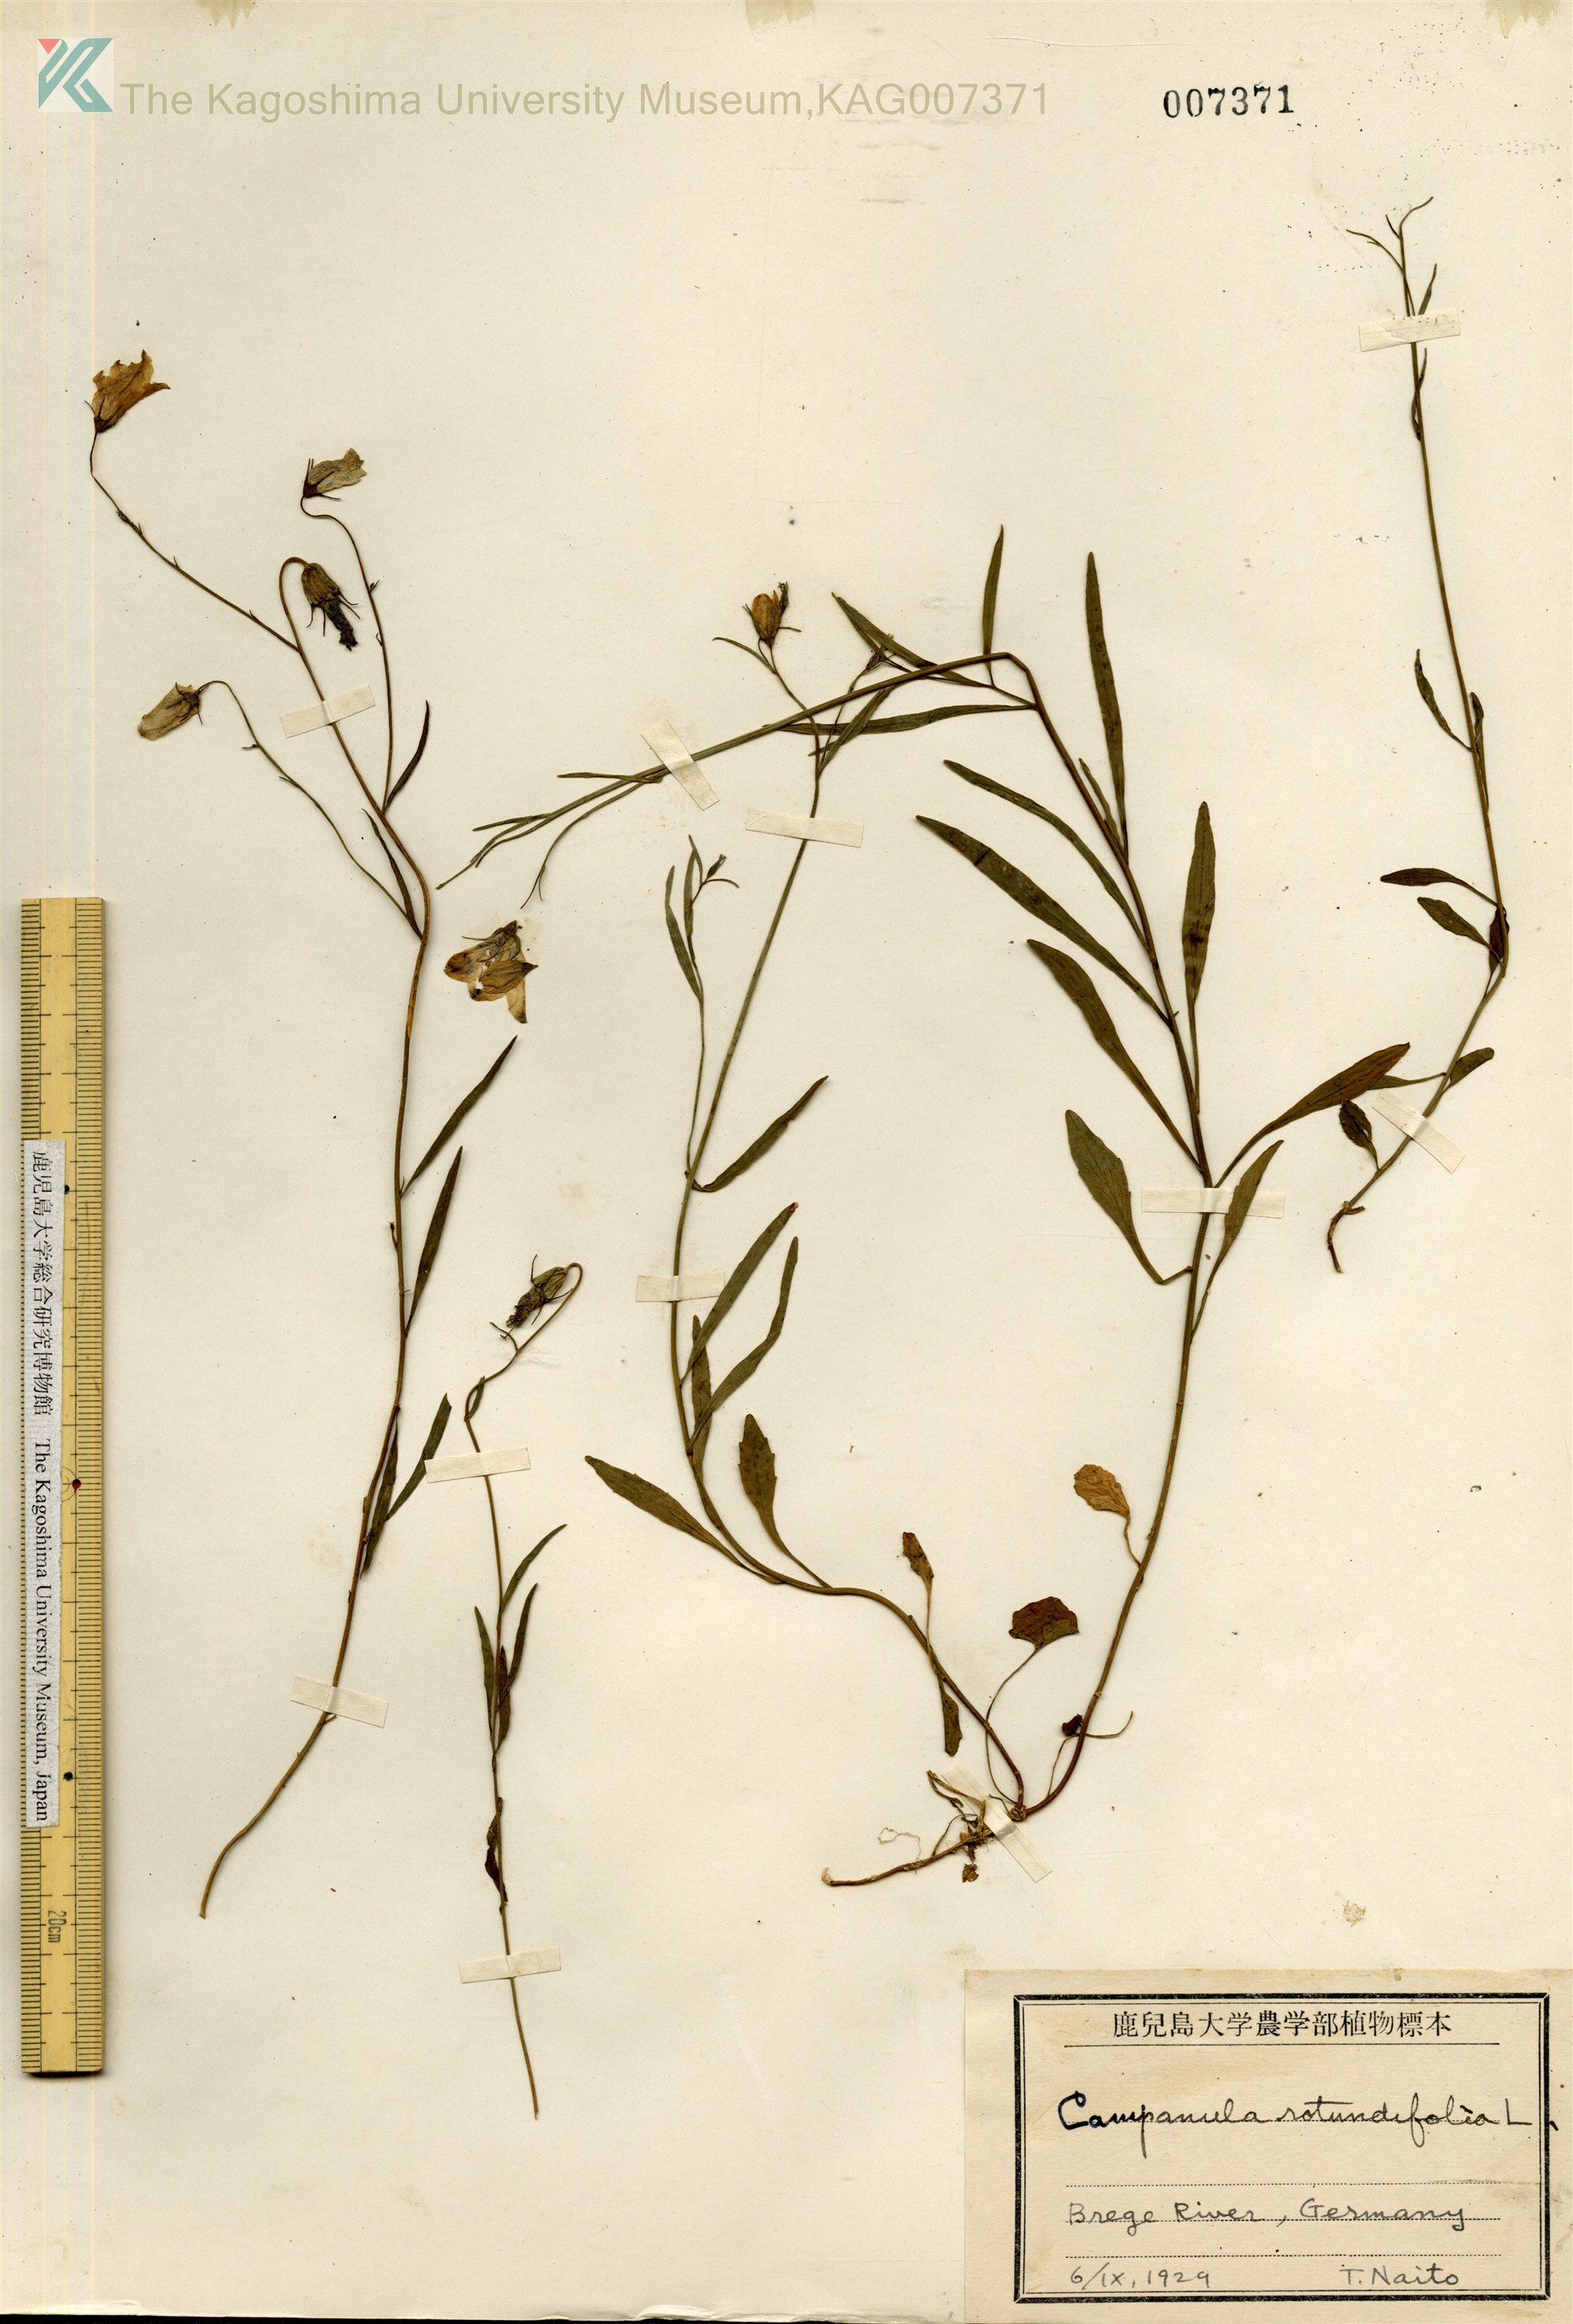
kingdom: Plantae
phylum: Tracheophyta
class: Magnoliopsida
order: Asterales
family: Campanulaceae
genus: Campanula
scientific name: Campanula rotundifolia
